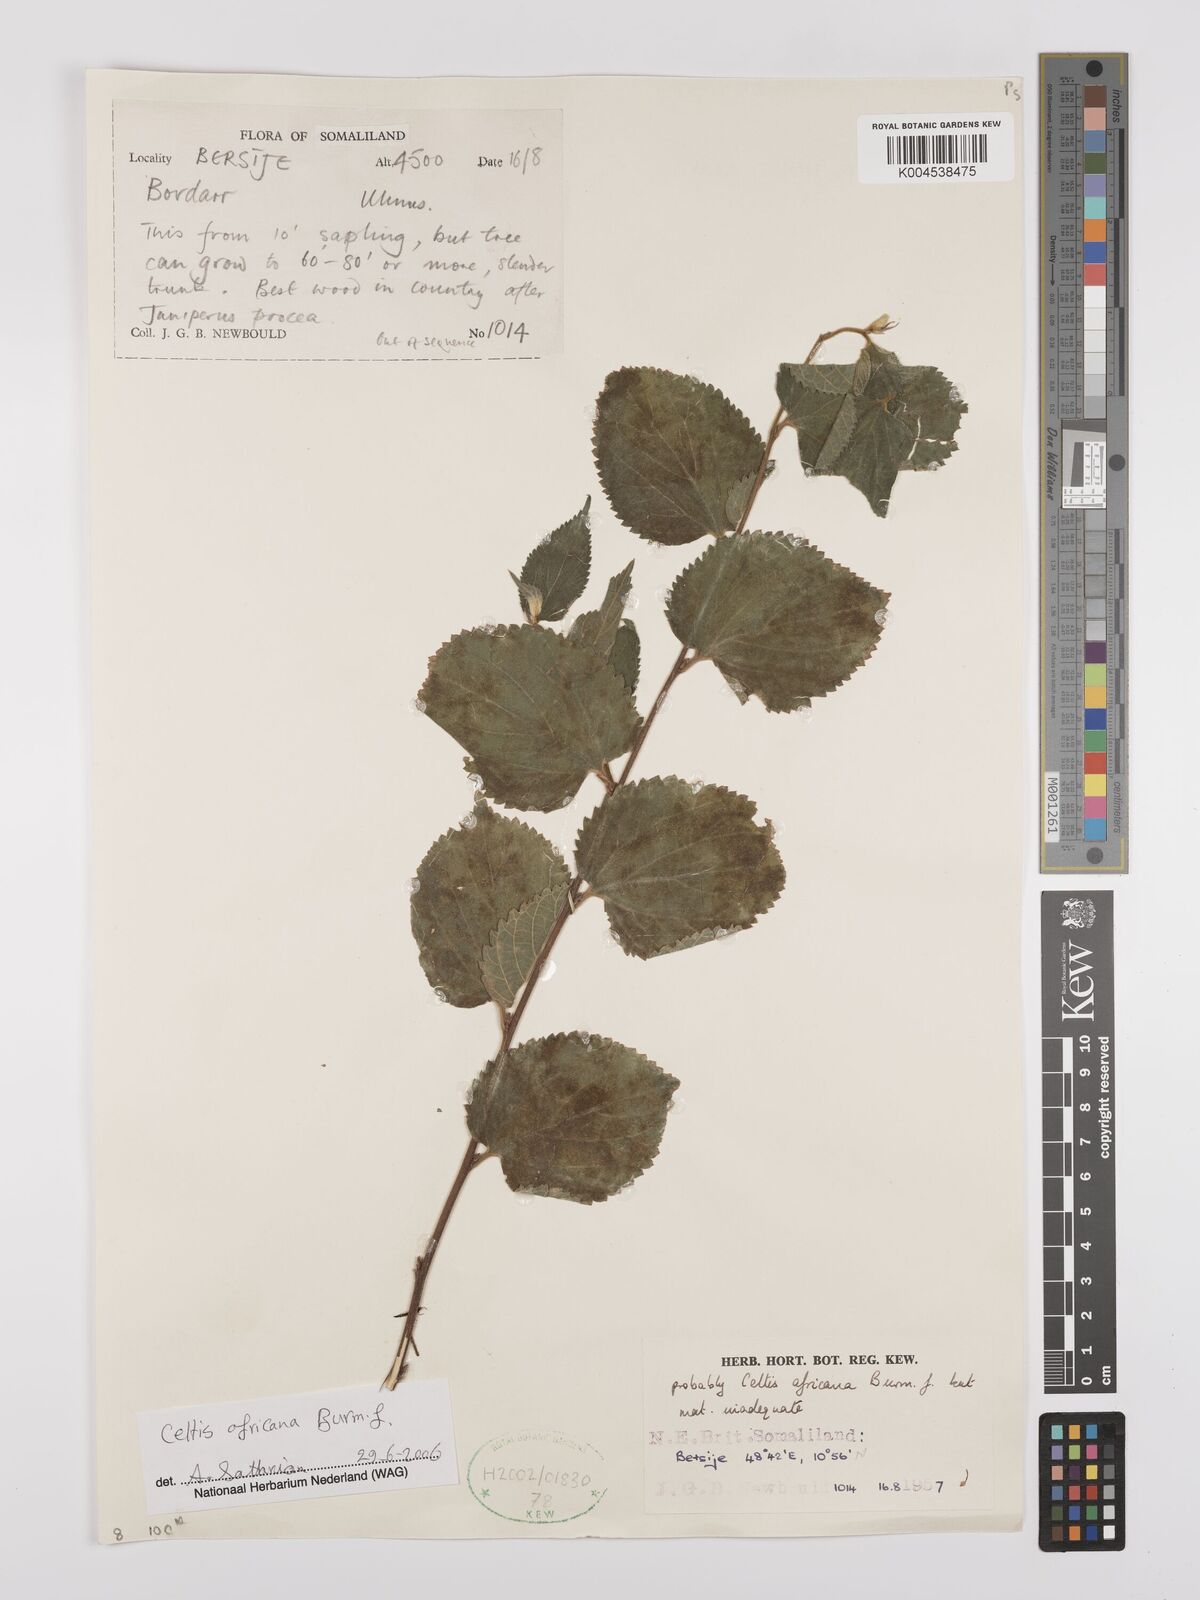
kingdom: Plantae
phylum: Tracheophyta
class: Magnoliopsida
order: Rosales
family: Cannabaceae
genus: Celtis
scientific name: Celtis africana
